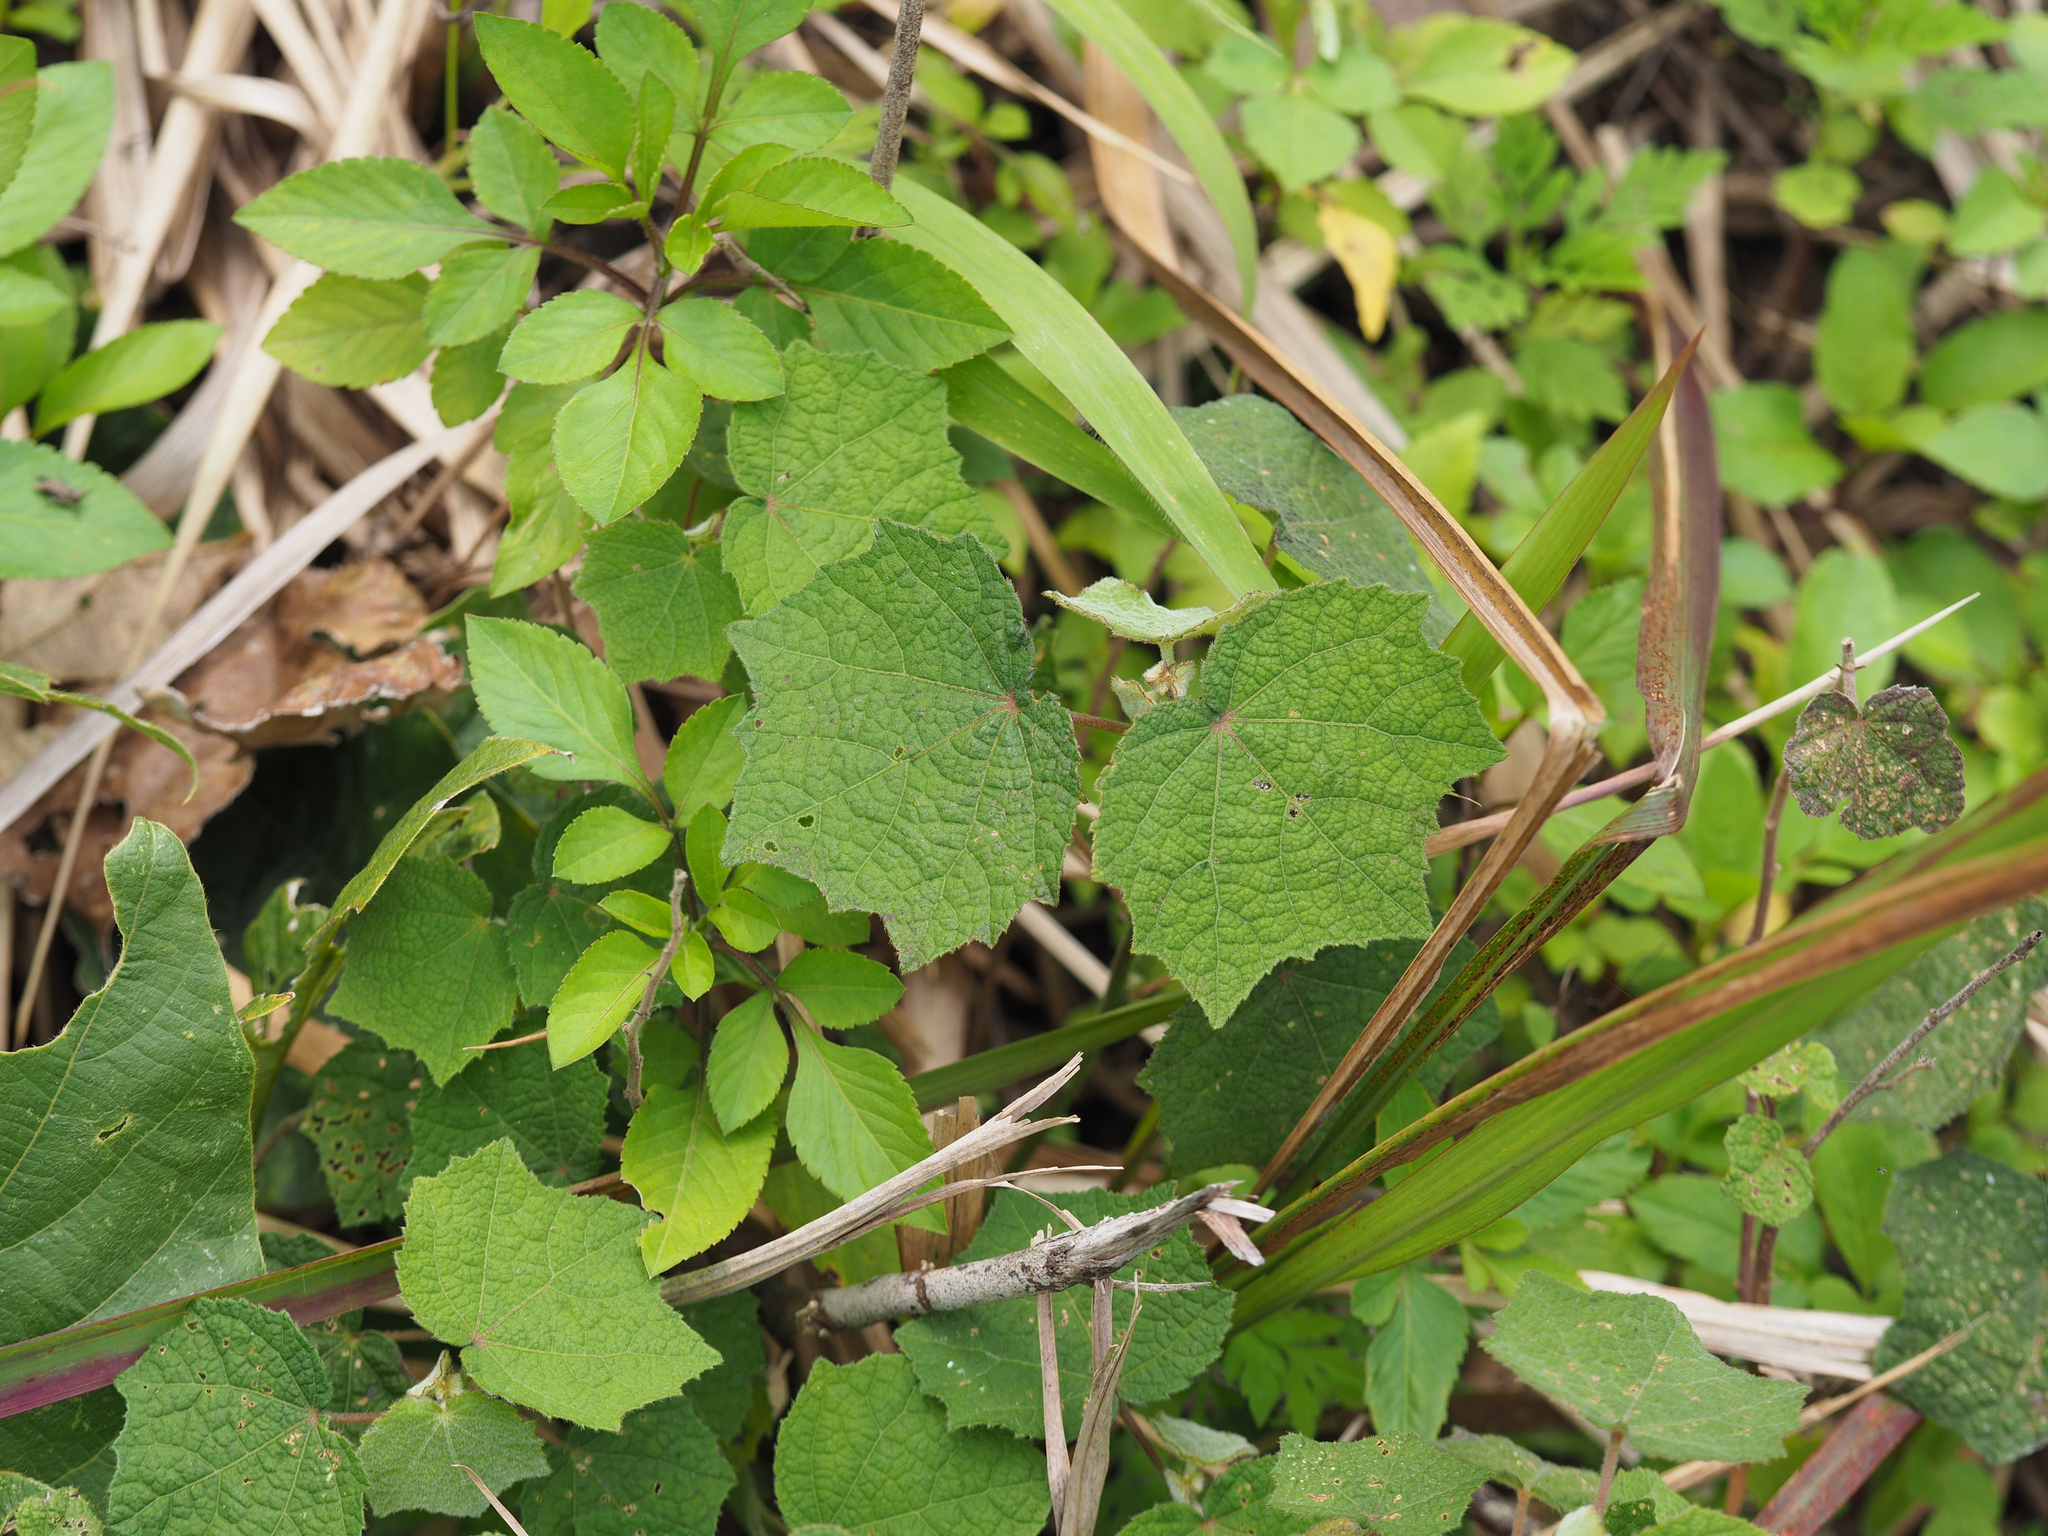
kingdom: Plantae
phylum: Tracheophyta
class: Magnoliopsida
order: Malvales
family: Malvaceae
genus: Urena
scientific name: Urena lobata
